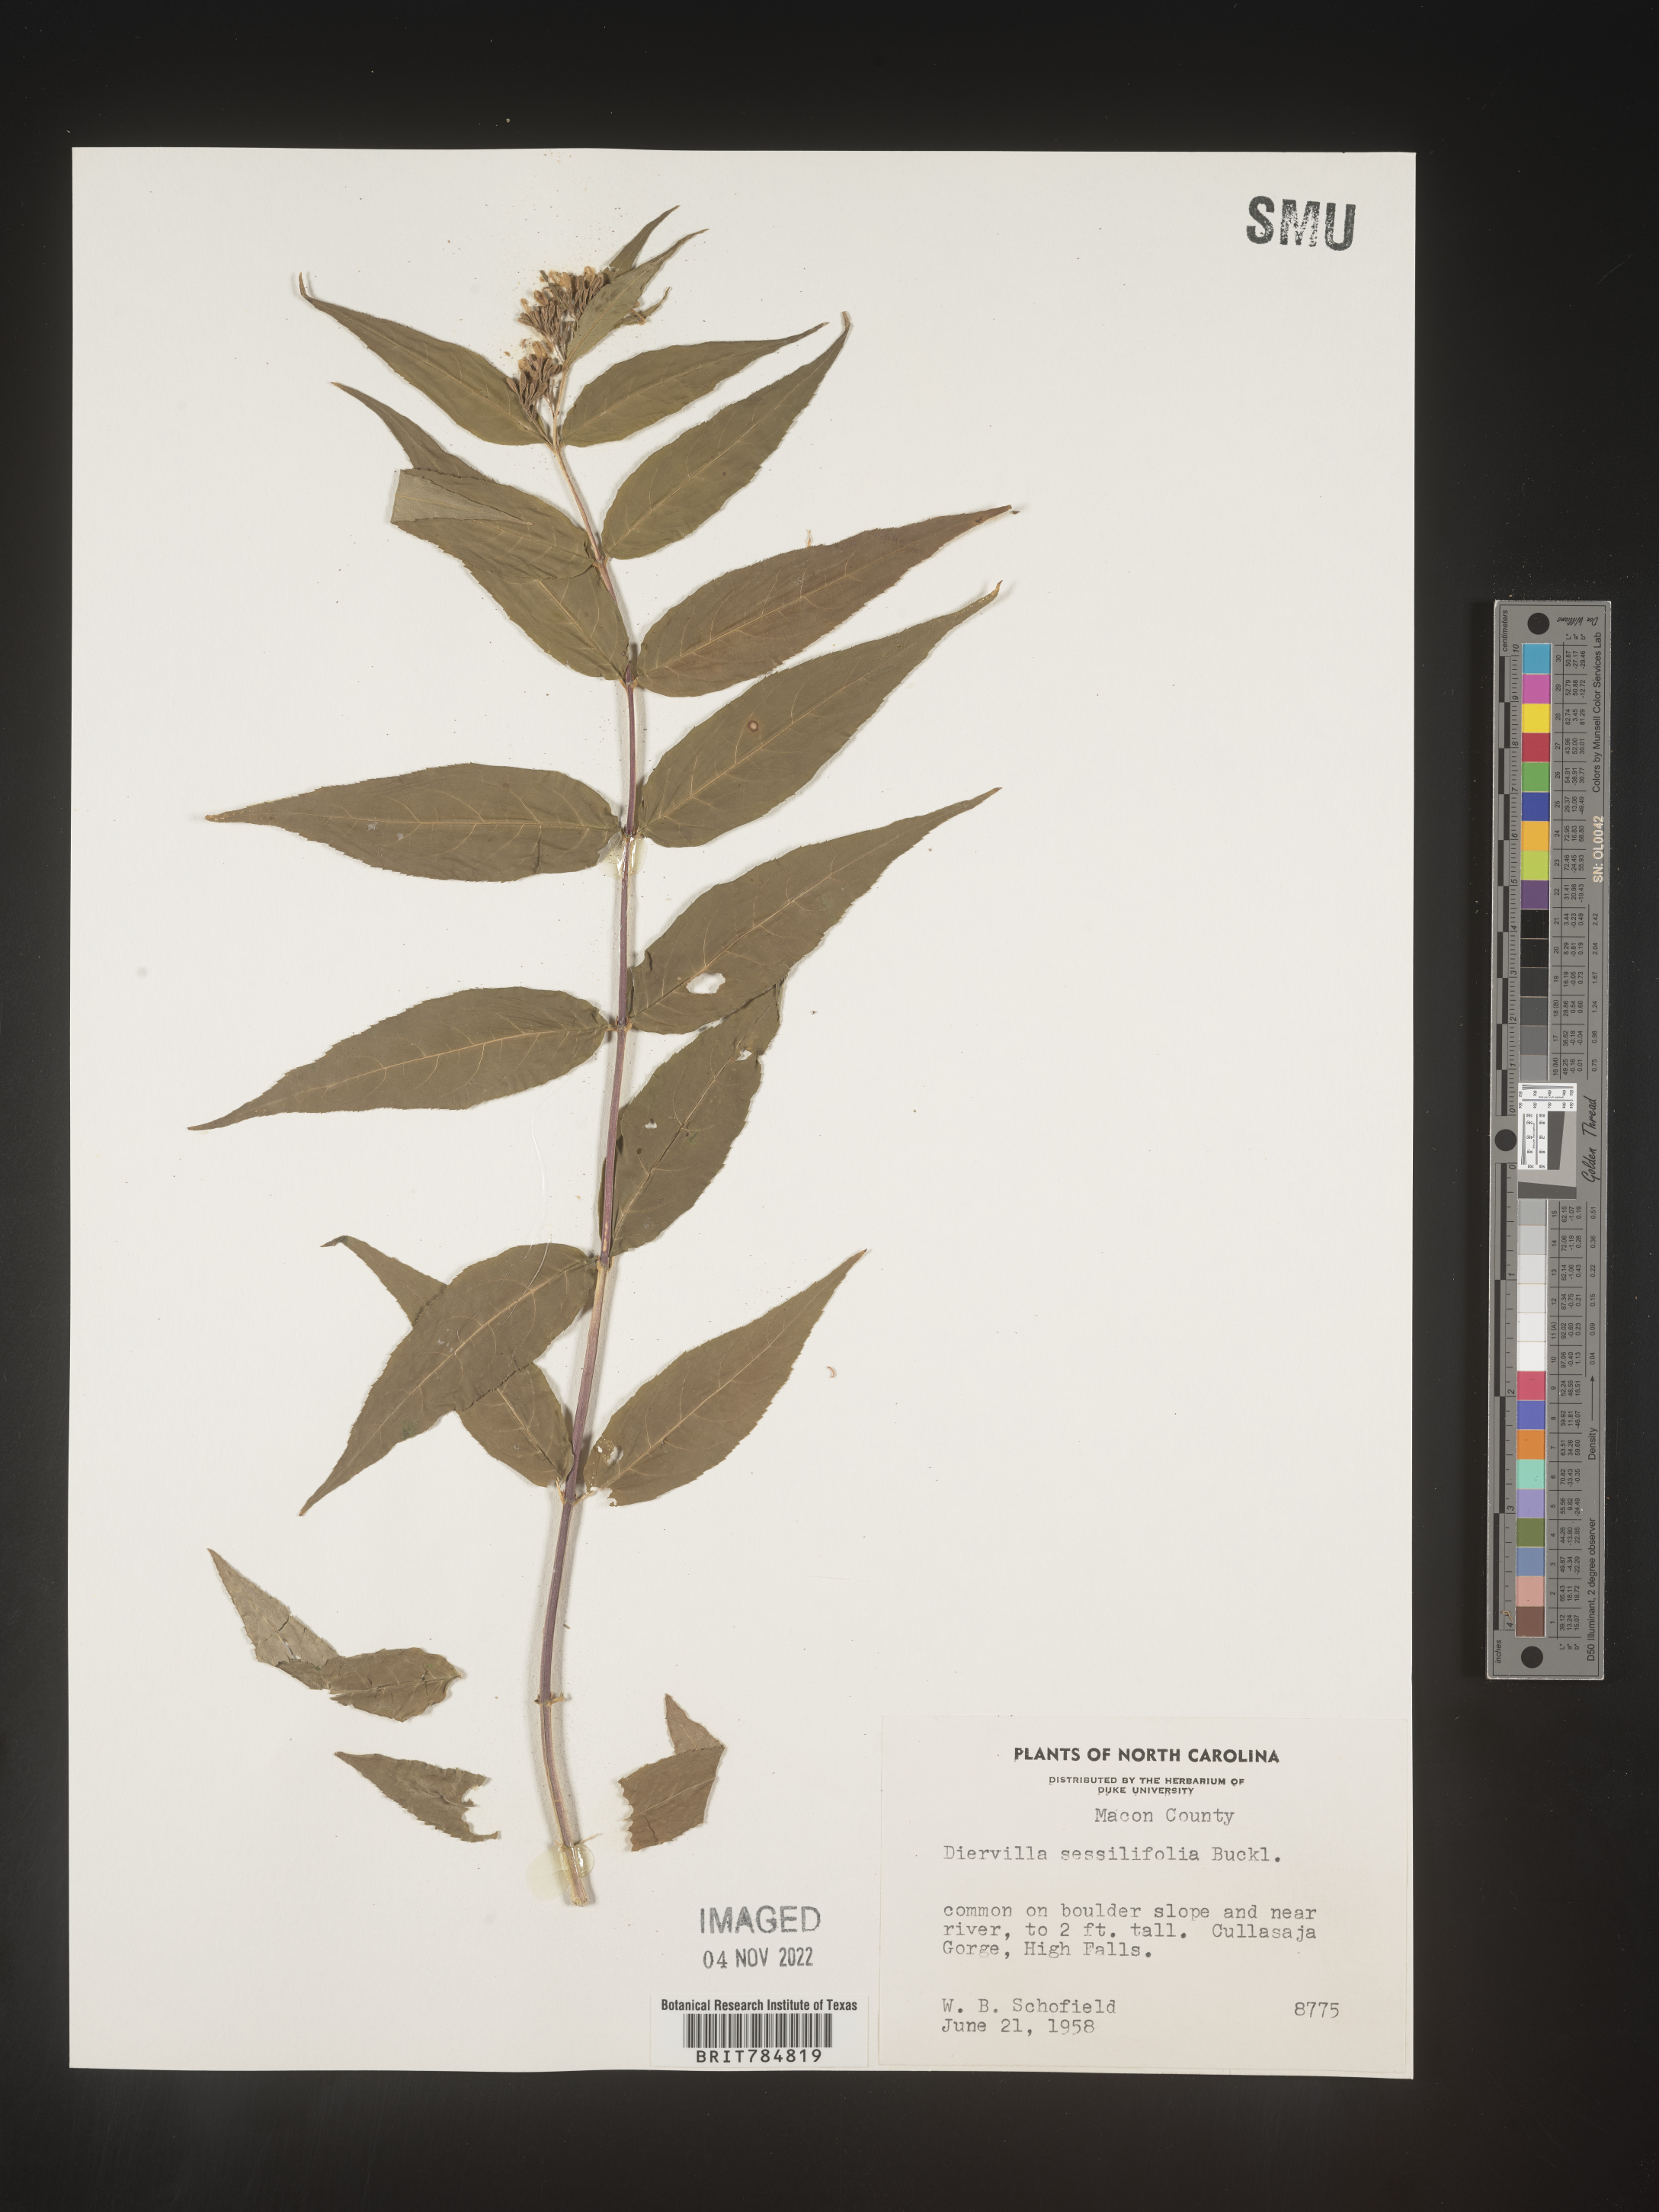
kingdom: Plantae
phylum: Tracheophyta
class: Magnoliopsida
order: Dipsacales
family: Caprifoliaceae
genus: Diervilla
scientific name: Diervilla
